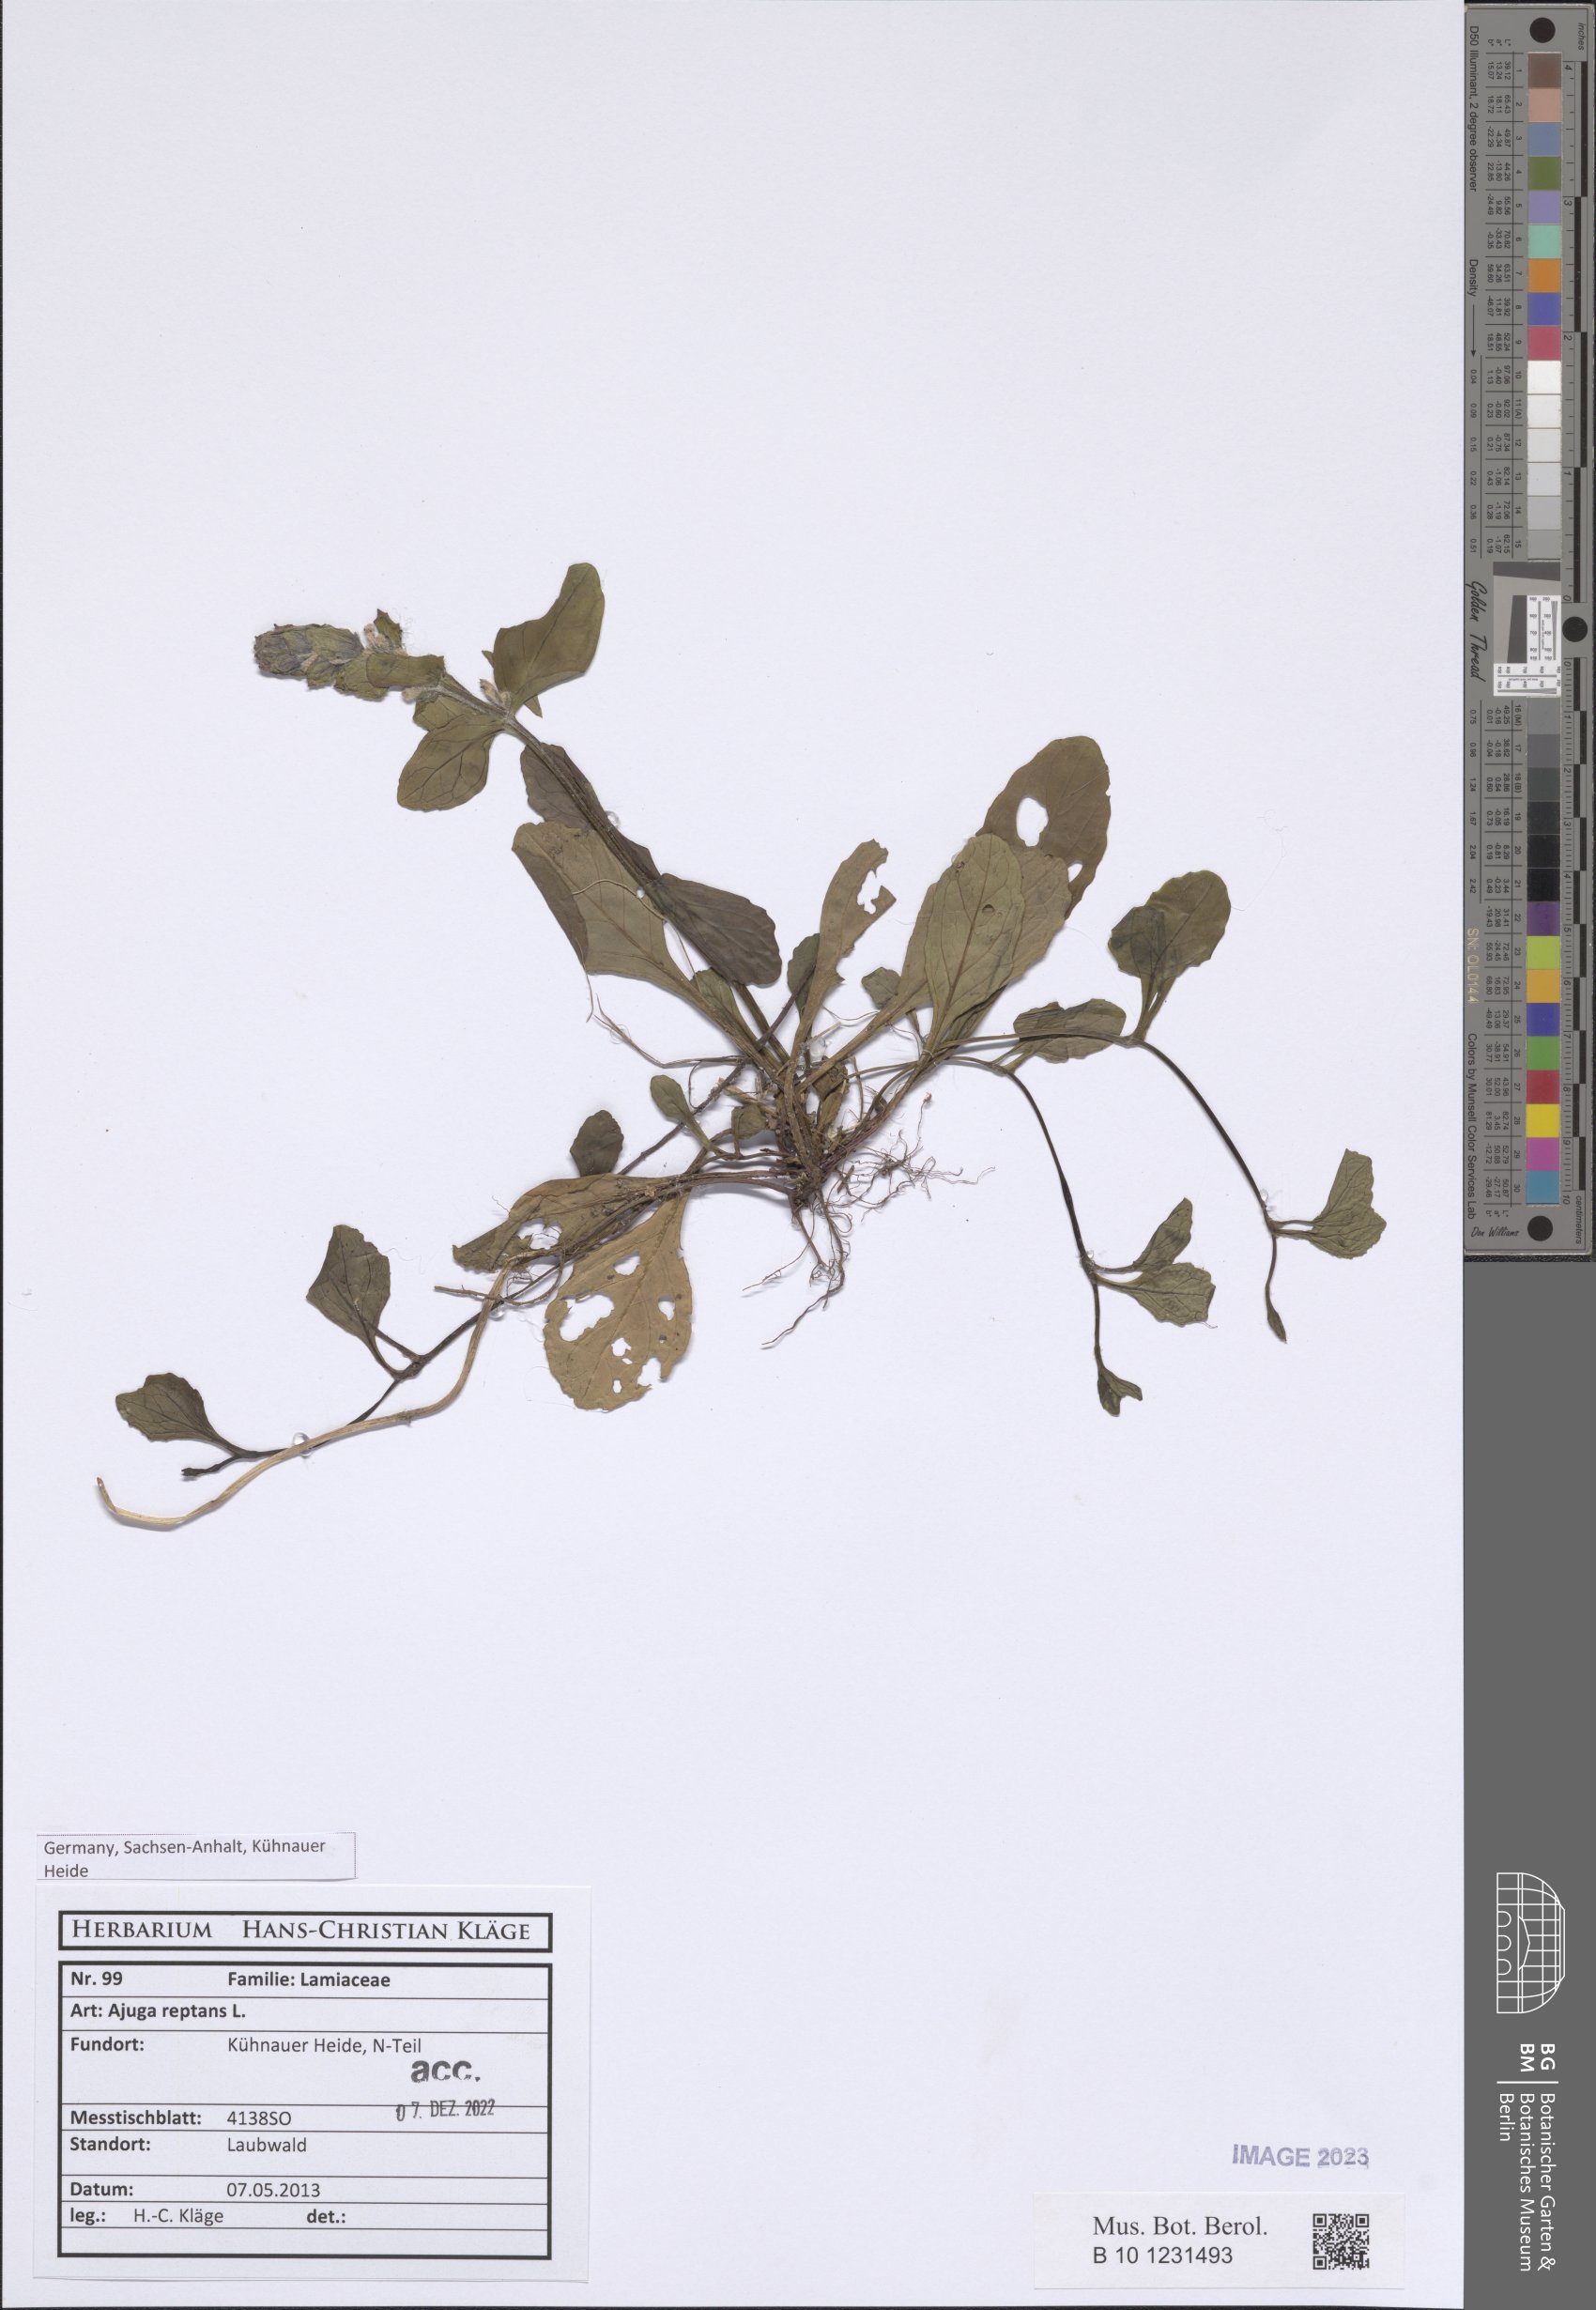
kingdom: Plantae
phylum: Tracheophyta
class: Magnoliopsida
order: Lamiales
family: Lamiaceae
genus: Ajuga
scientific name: Ajuga reptans
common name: Bugle
